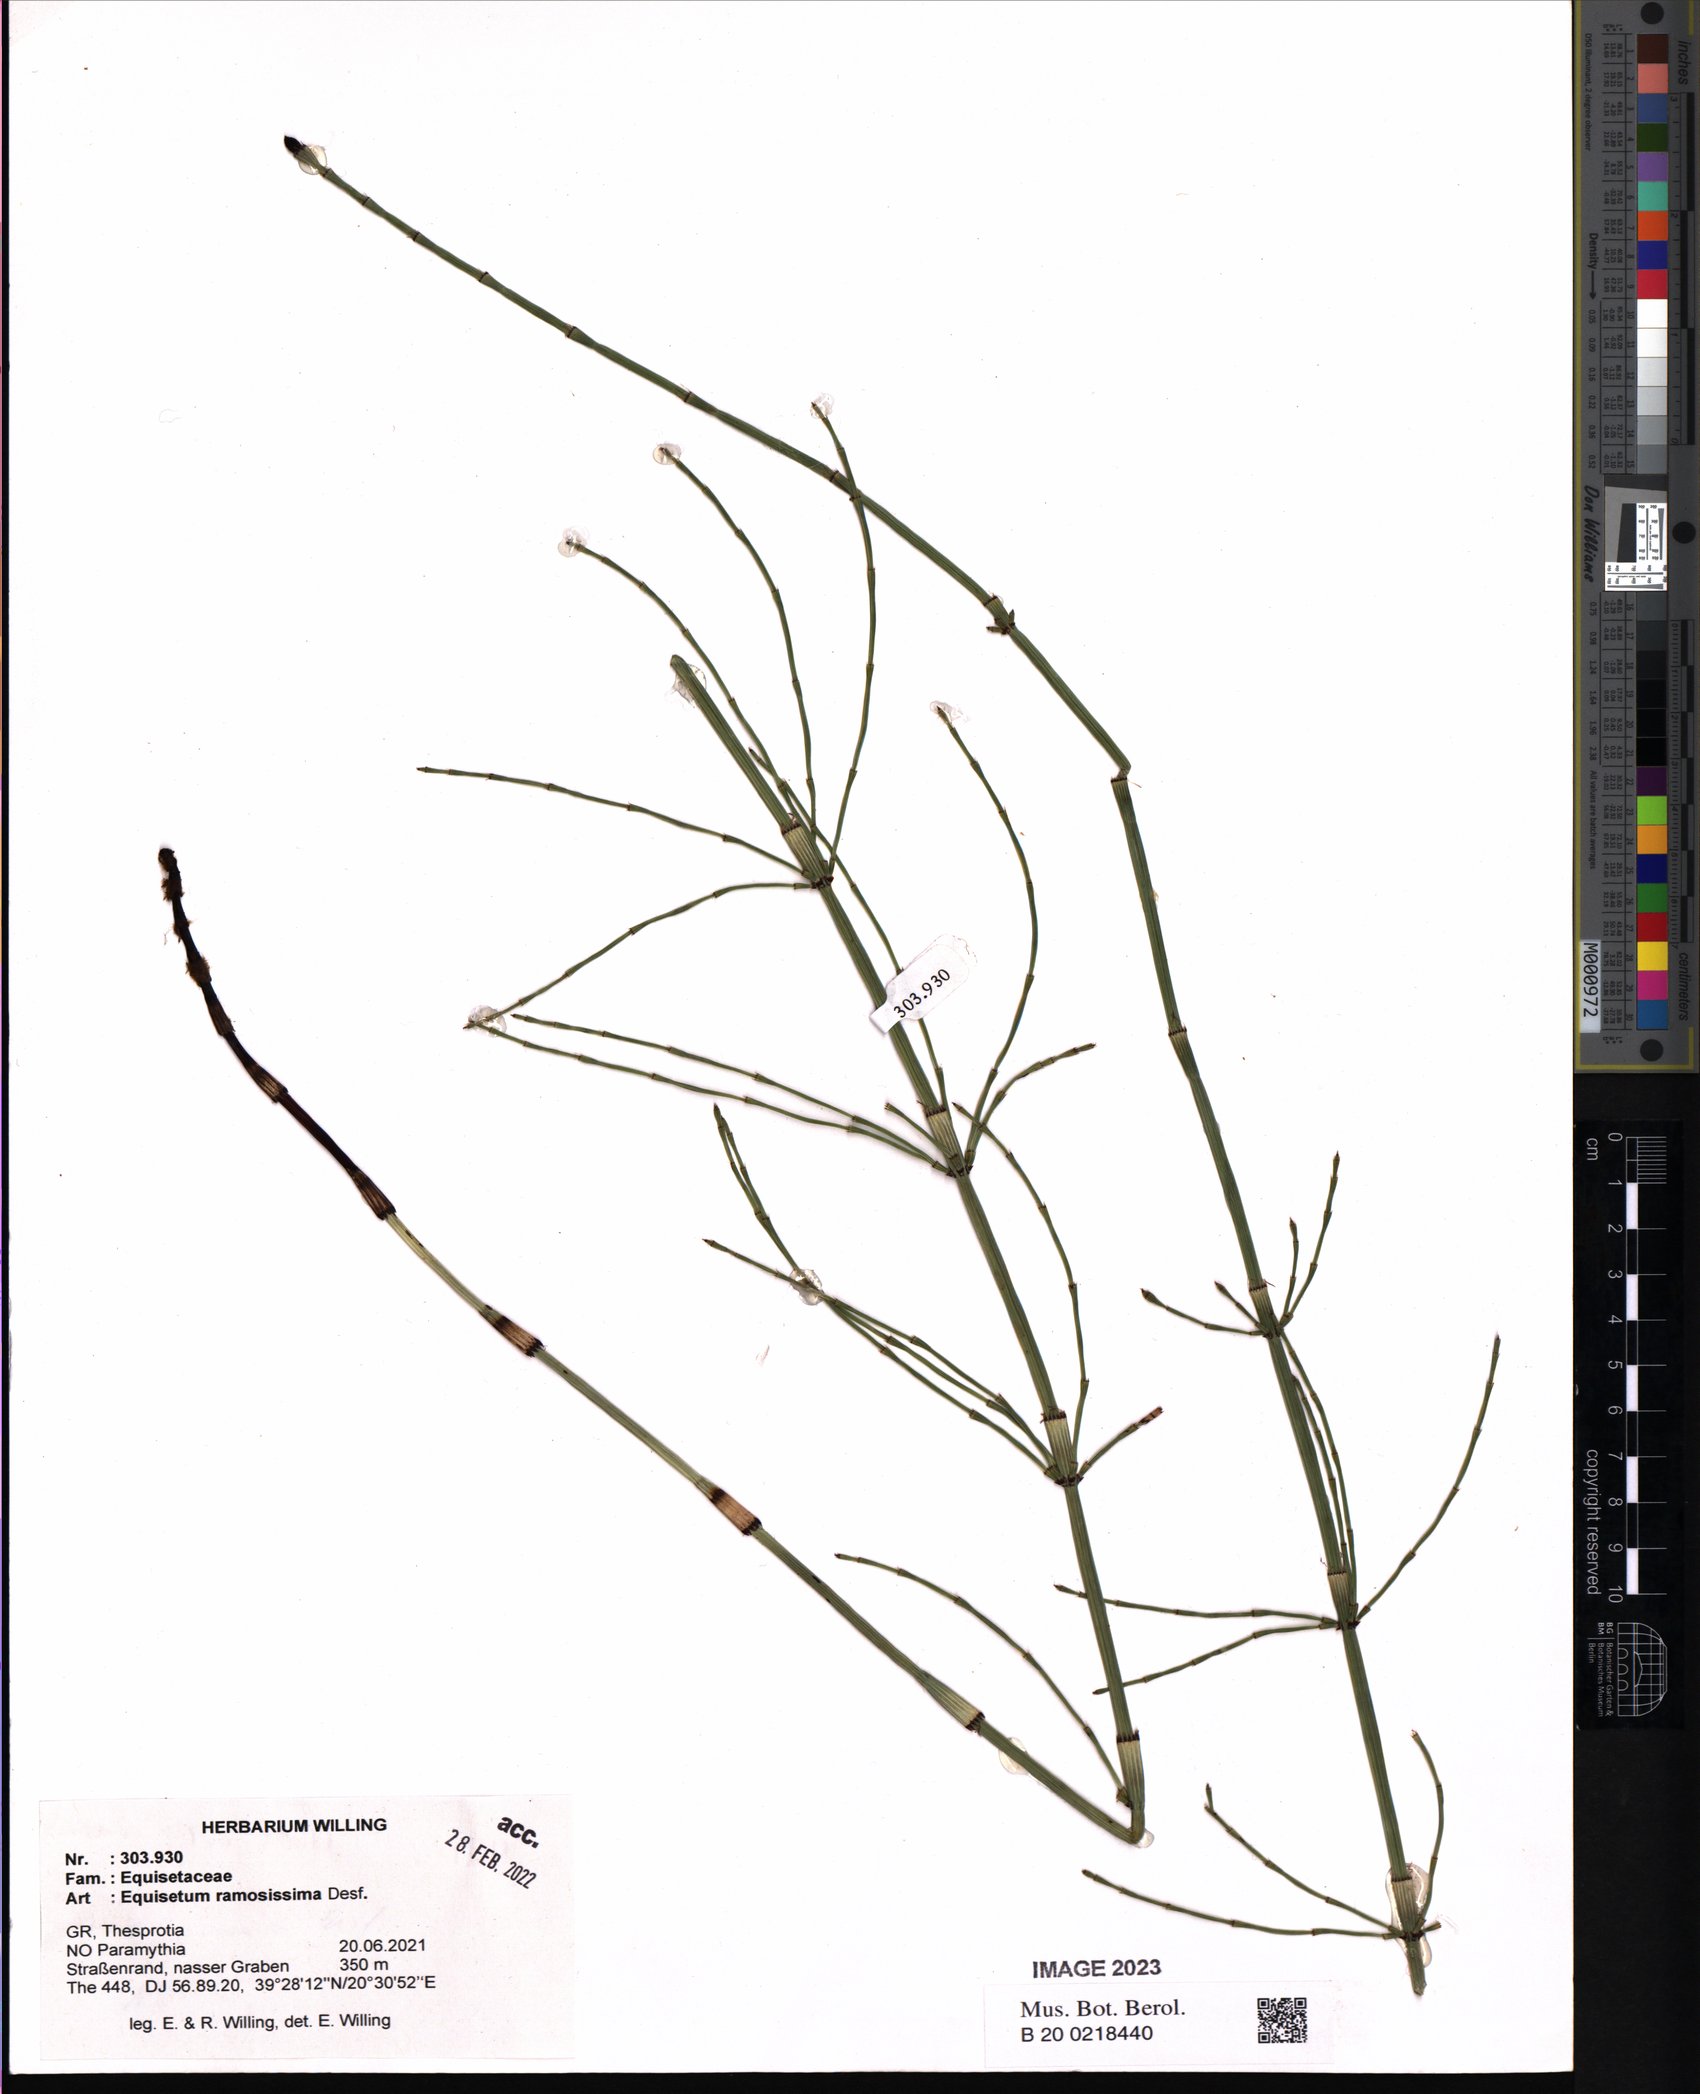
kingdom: Plantae
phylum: Tracheophyta
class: Polypodiopsida
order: Equisetales
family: Equisetaceae
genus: Equisetum
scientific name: Equisetum ramosissimum
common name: Branched horsetail
